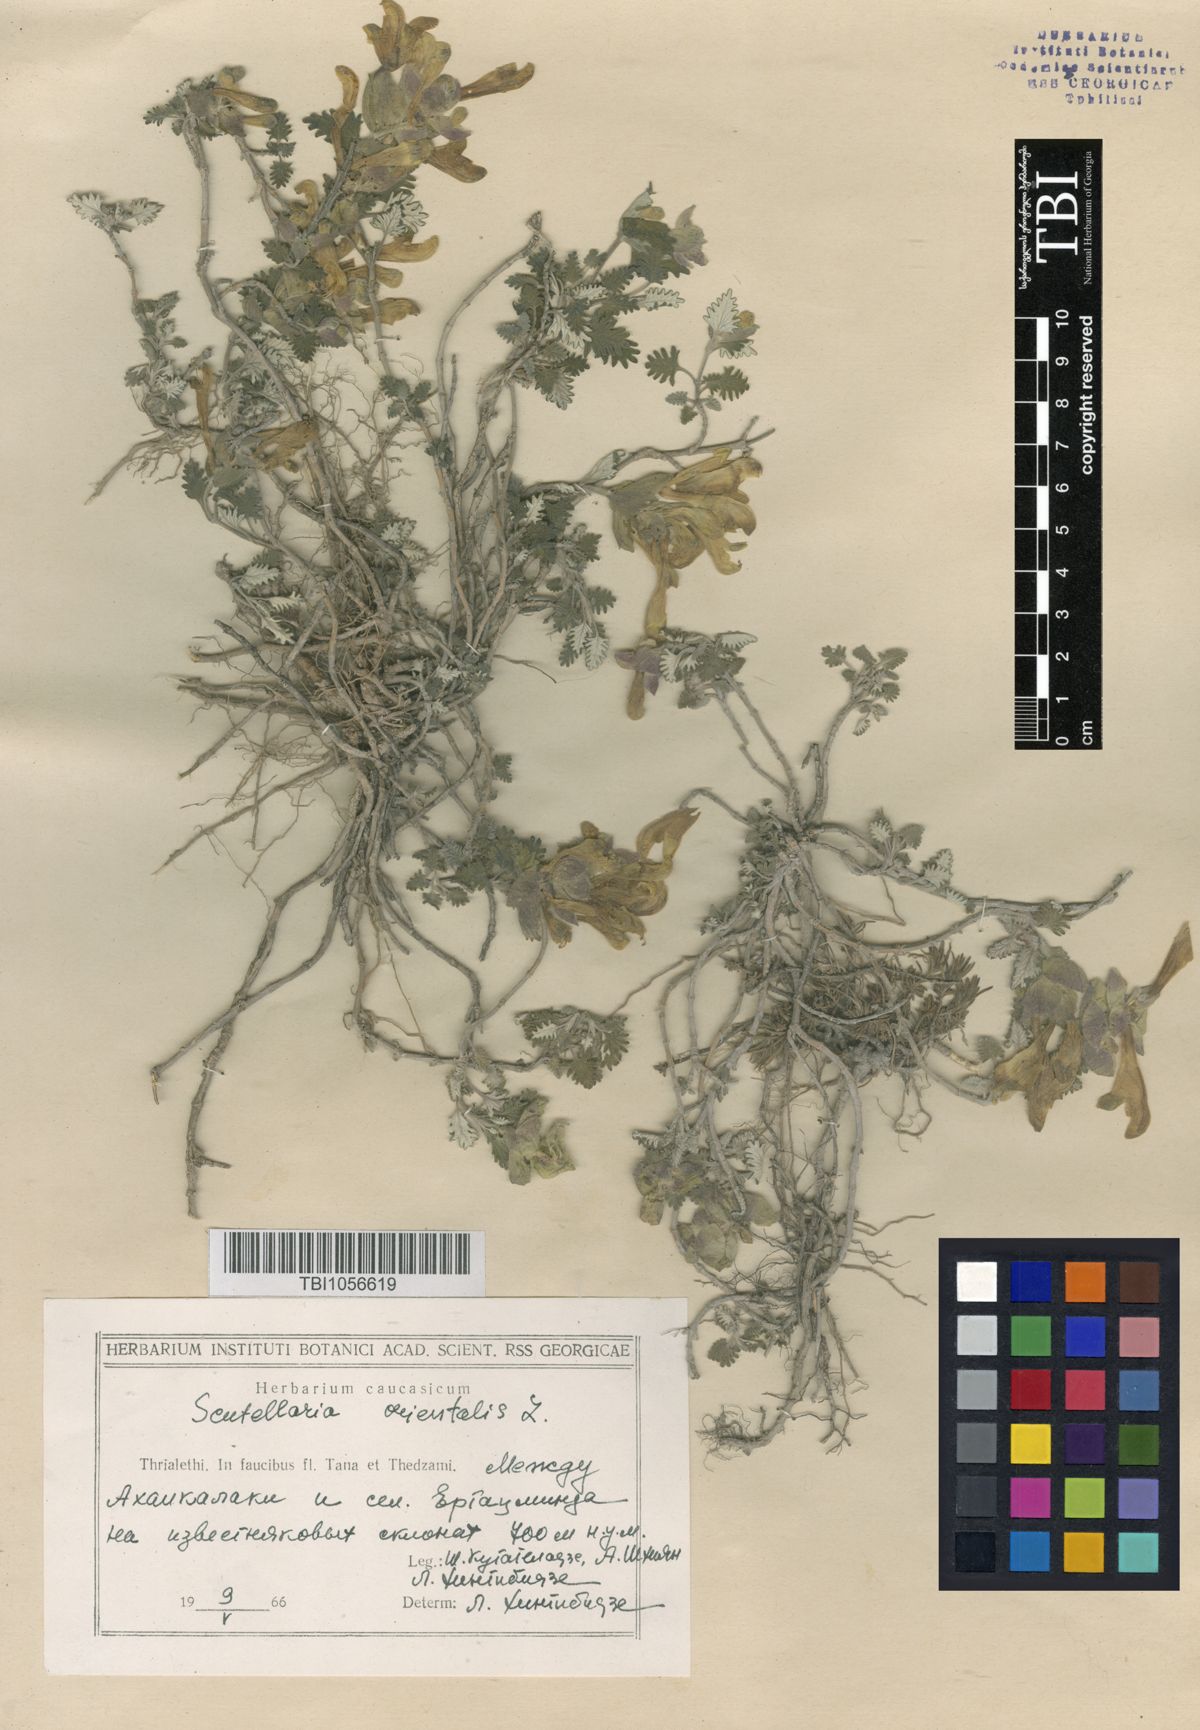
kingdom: Plantae
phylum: Tracheophyta
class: Magnoliopsida
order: Lamiales
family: Lamiaceae
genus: Scutellaria
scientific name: Scutellaria orientalis
